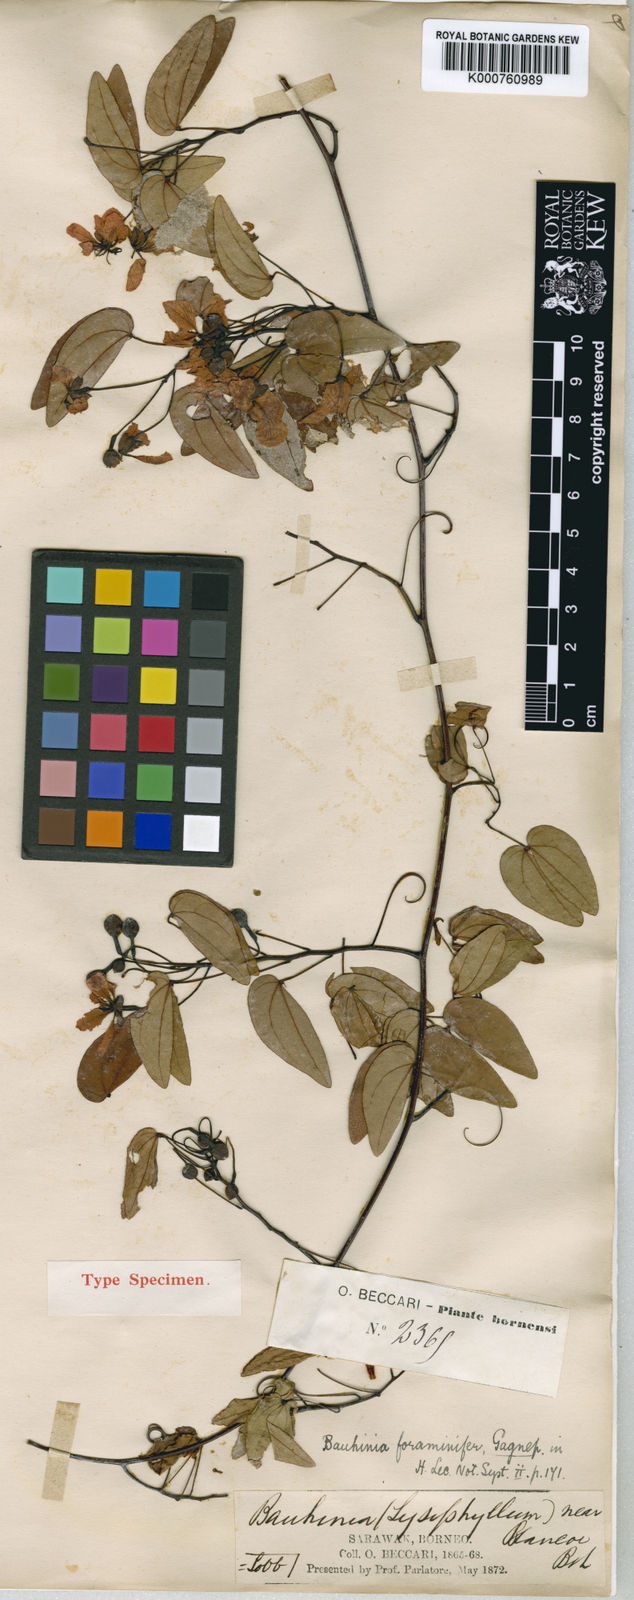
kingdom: Plantae
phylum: Tracheophyta
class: Magnoliopsida
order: Fabales
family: Fabaceae
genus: Phanera
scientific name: Phanera foraminifera
